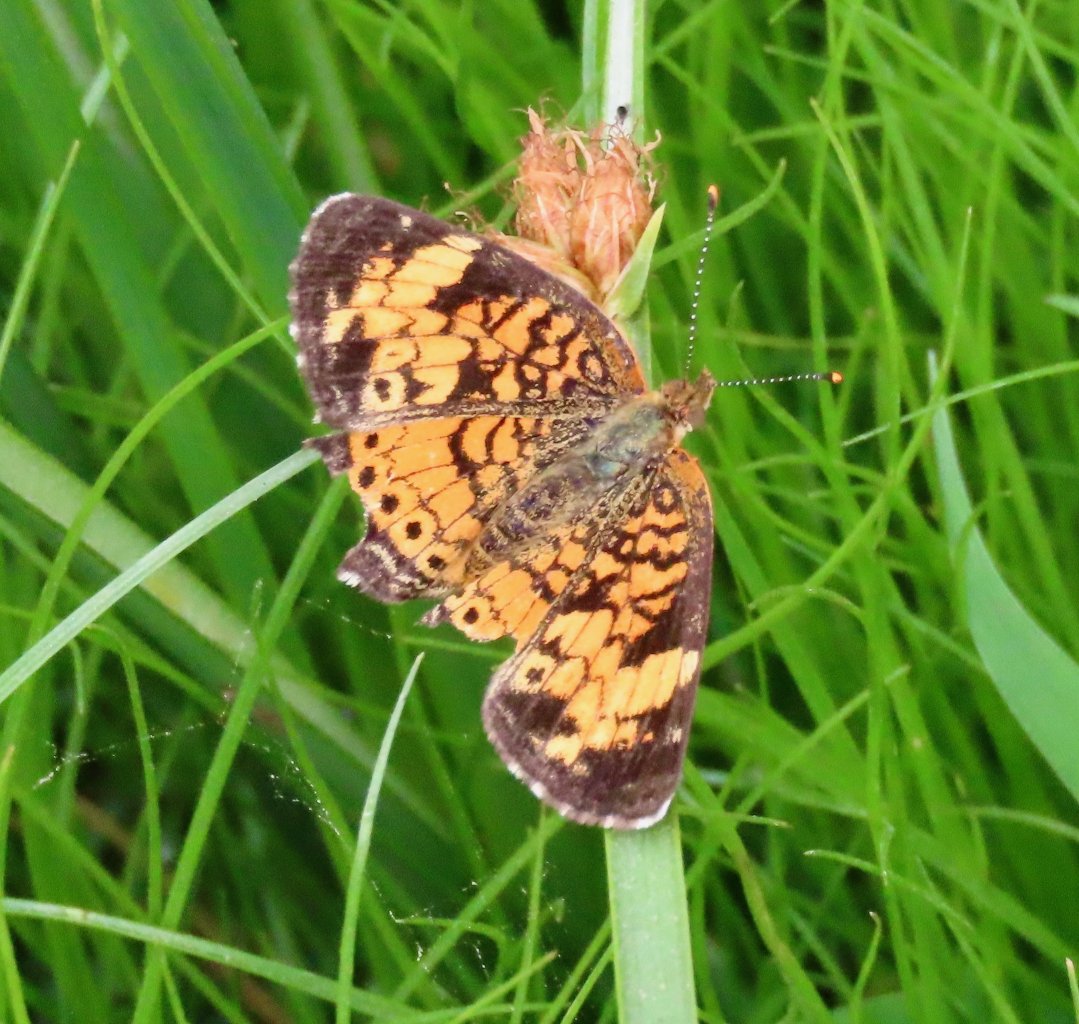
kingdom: Animalia
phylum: Arthropoda
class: Insecta
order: Lepidoptera
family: Nymphalidae
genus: Phyciodes
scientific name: Phyciodes tharos
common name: Pearl Crescent
